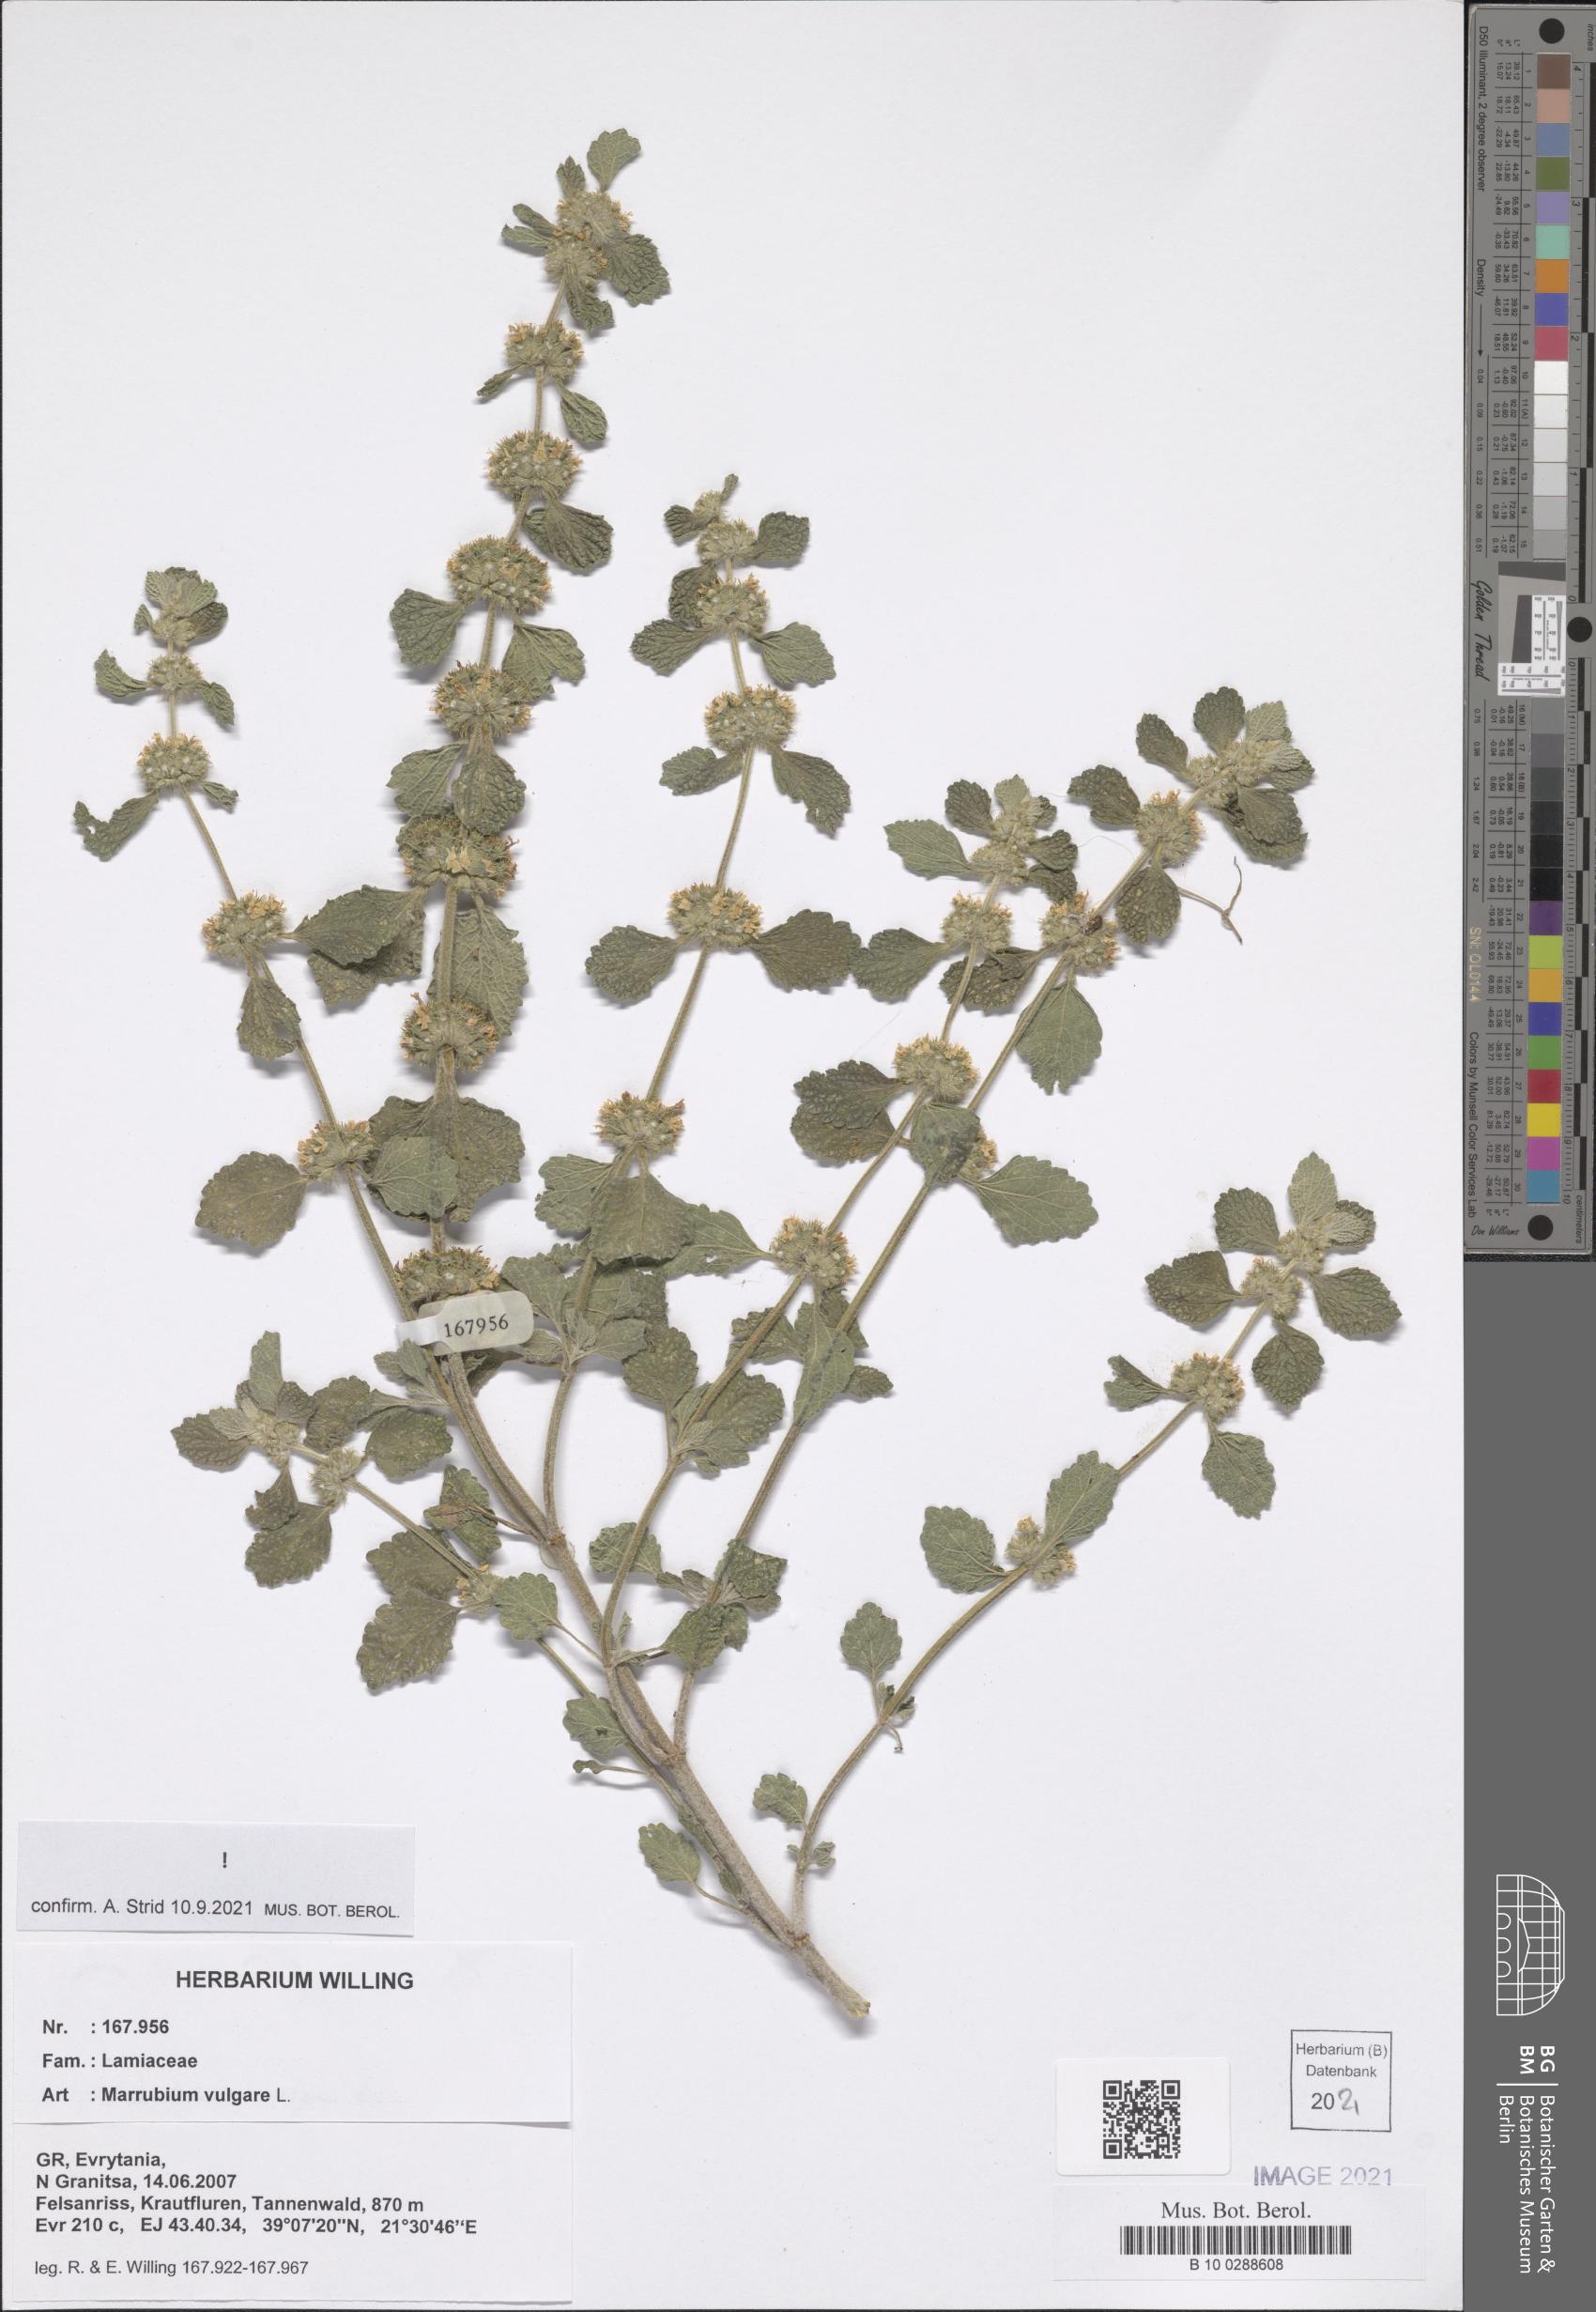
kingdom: Plantae
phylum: Tracheophyta
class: Magnoliopsida
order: Lamiales
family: Lamiaceae
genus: Marrubium
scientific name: Marrubium vulgare
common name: Horehound
